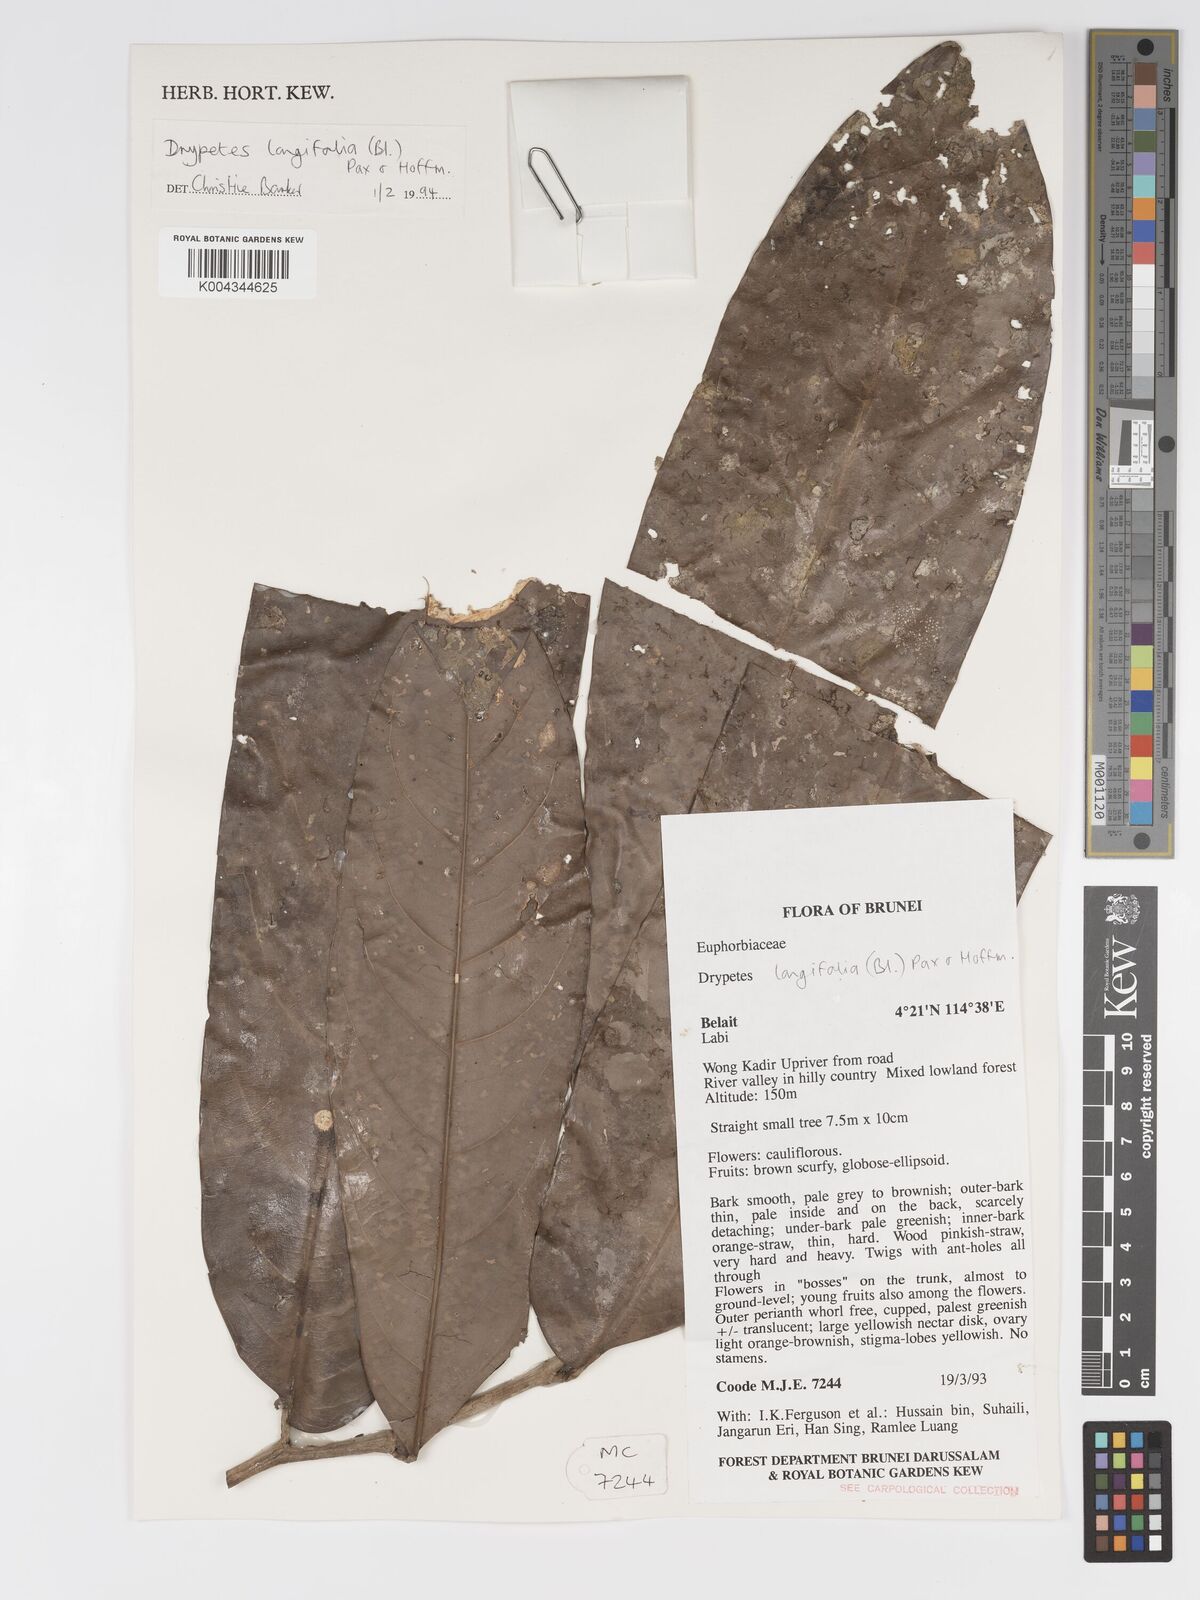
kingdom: Plantae
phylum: Tracheophyta
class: Magnoliopsida
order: Malpighiales
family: Putranjivaceae
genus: Drypetes
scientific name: Drypetes longifolia
